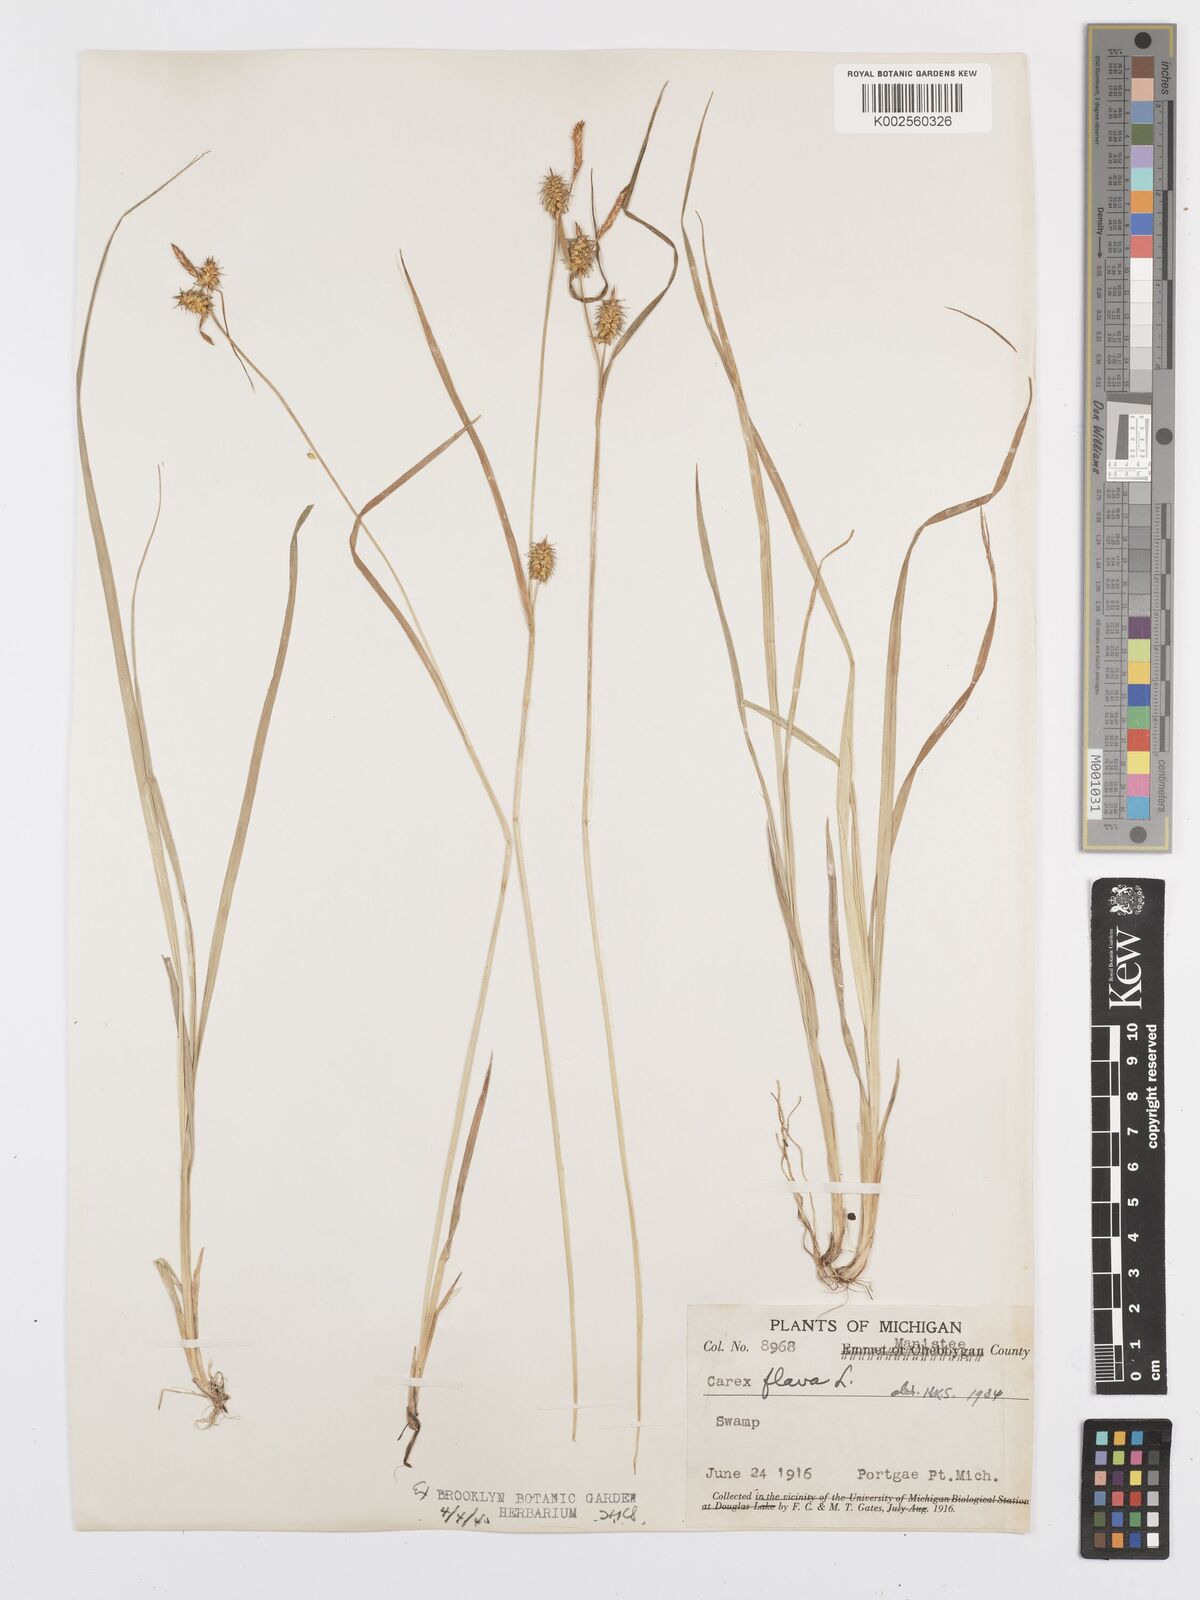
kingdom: Plantae
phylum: Tracheophyta
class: Liliopsida
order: Poales
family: Cyperaceae
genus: Carex
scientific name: Carex flava
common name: Large yellow-sedge
